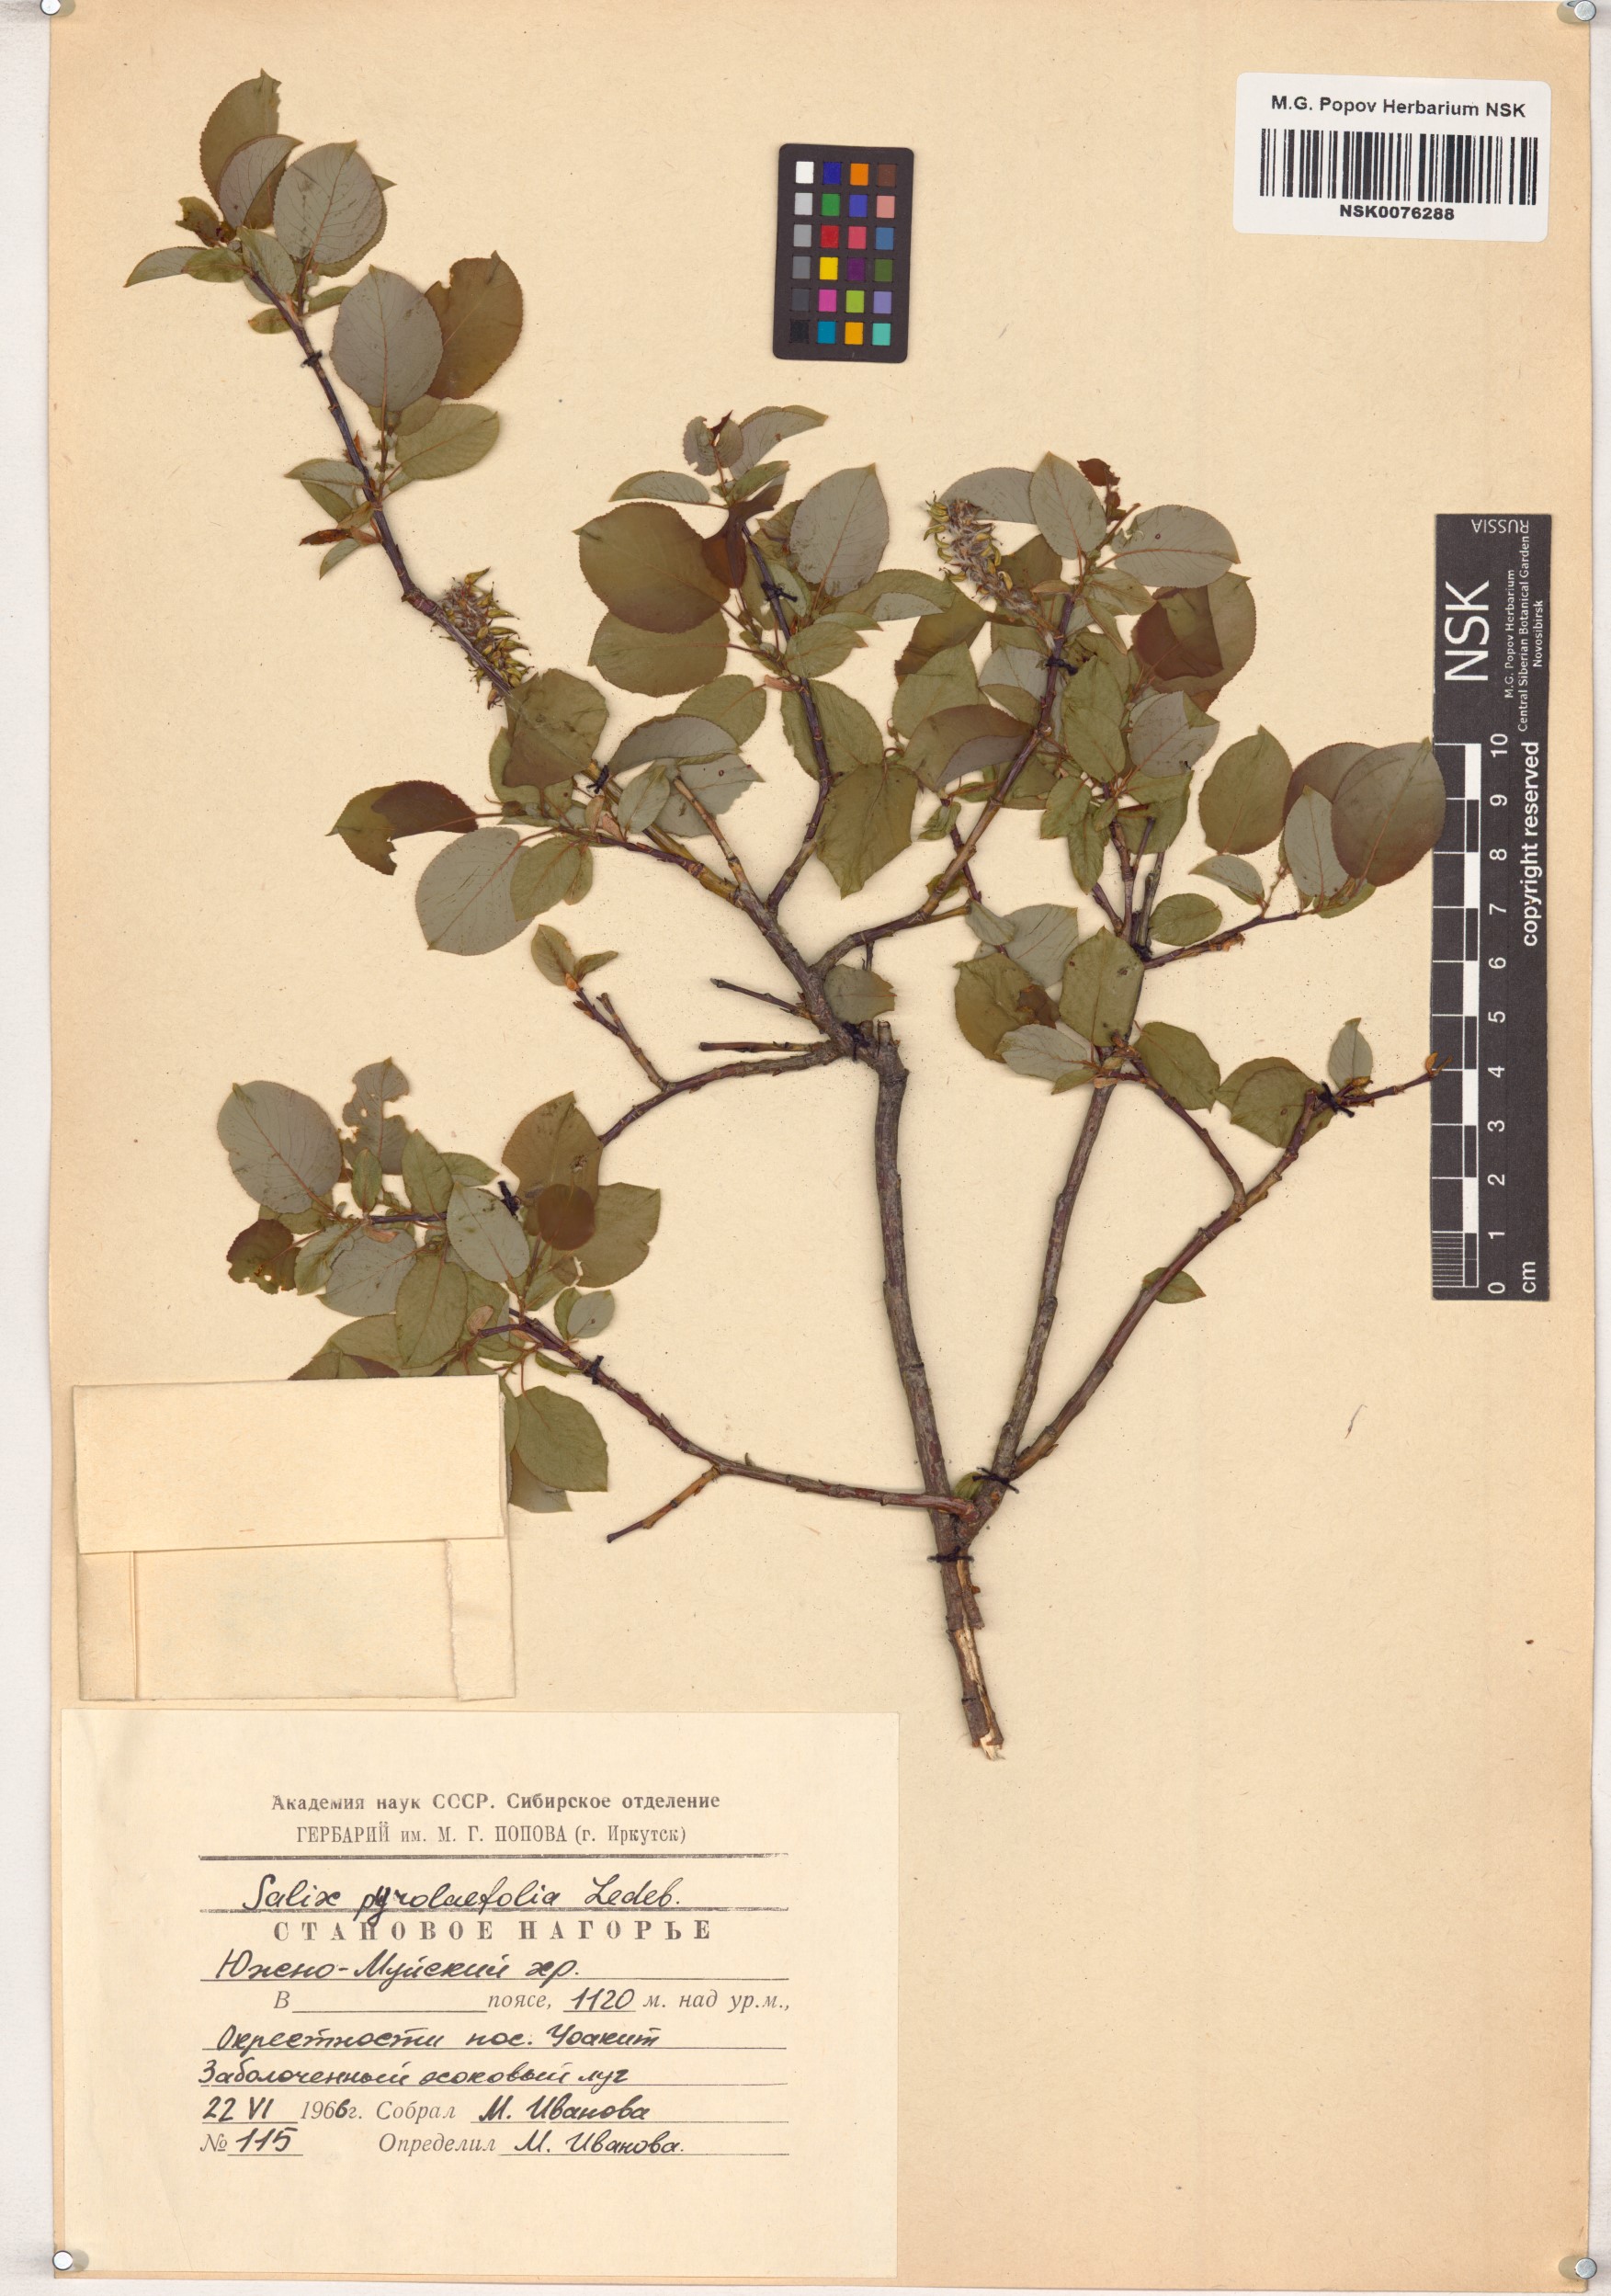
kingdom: Plantae
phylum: Tracheophyta
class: Magnoliopsida
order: Malpighiales
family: Salicaceae
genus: Salix
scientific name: Salix pyrolifolia
